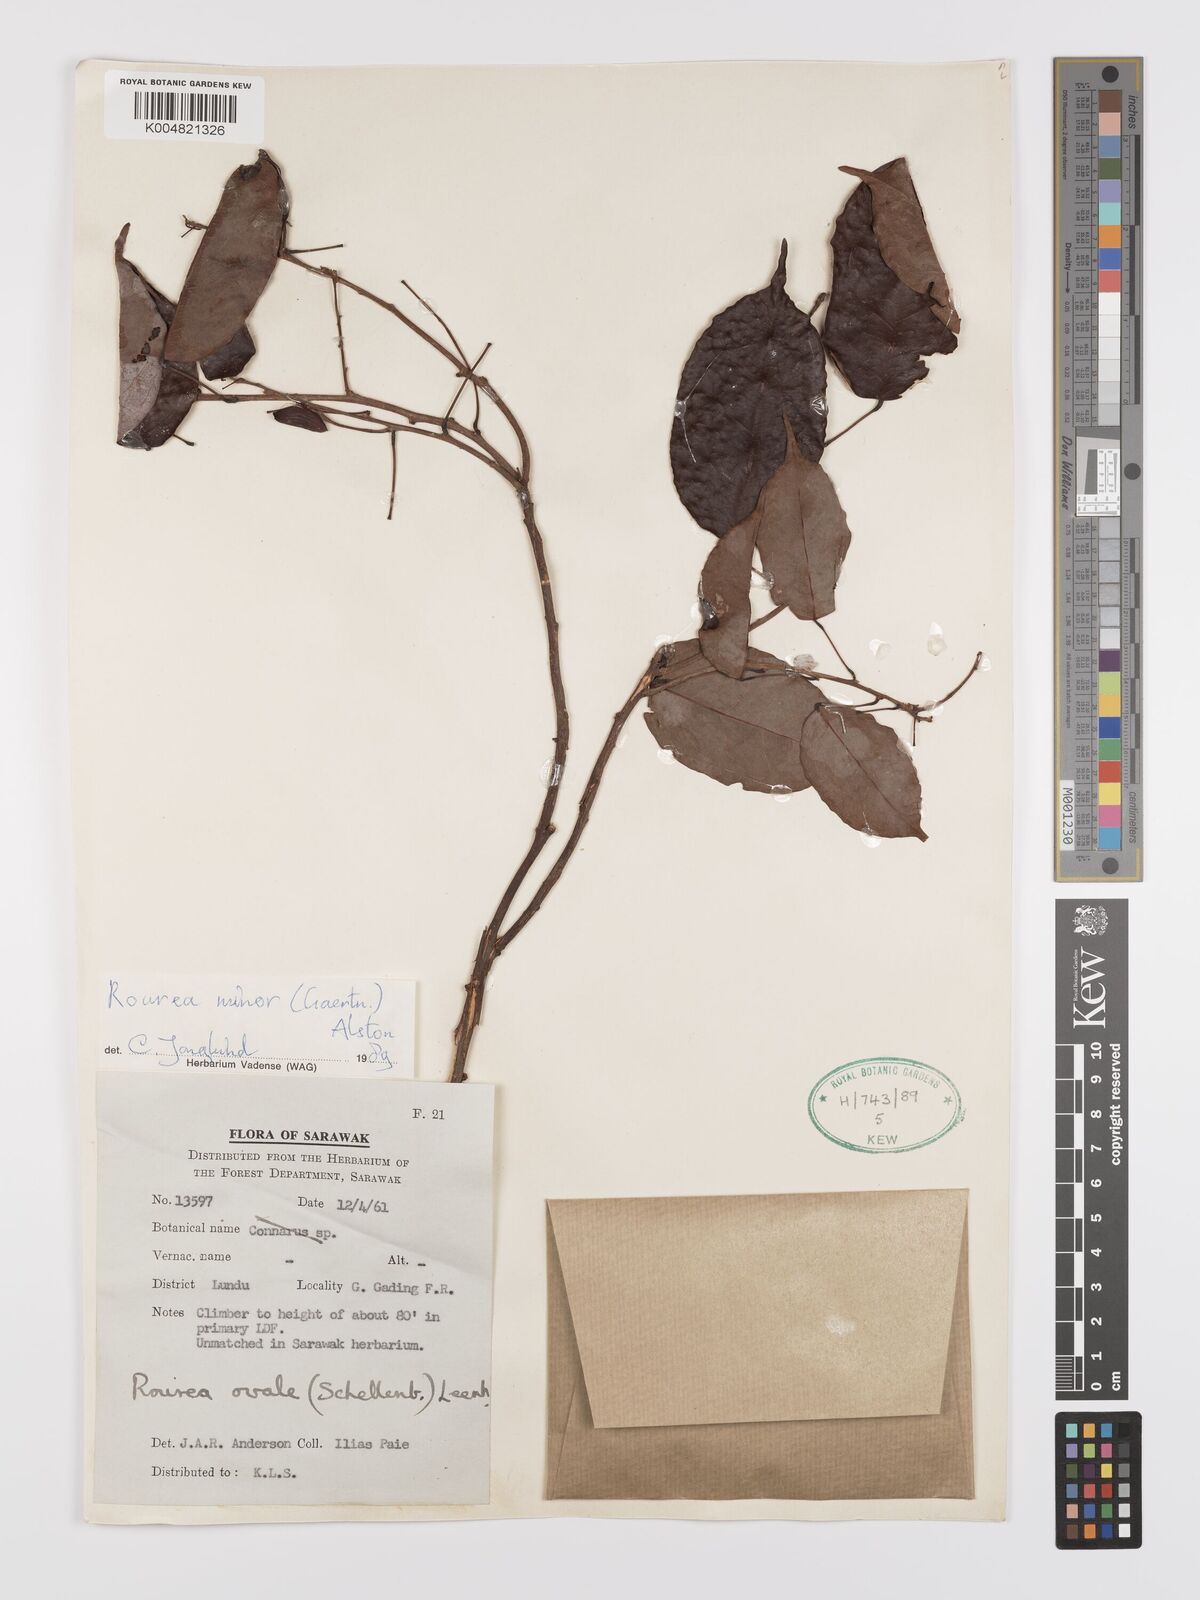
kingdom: Plantae
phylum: Tracheophyta
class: Magnoliopsida
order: Oxalidales
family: Connaraceae
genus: Rourea
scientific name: Rourea minor
